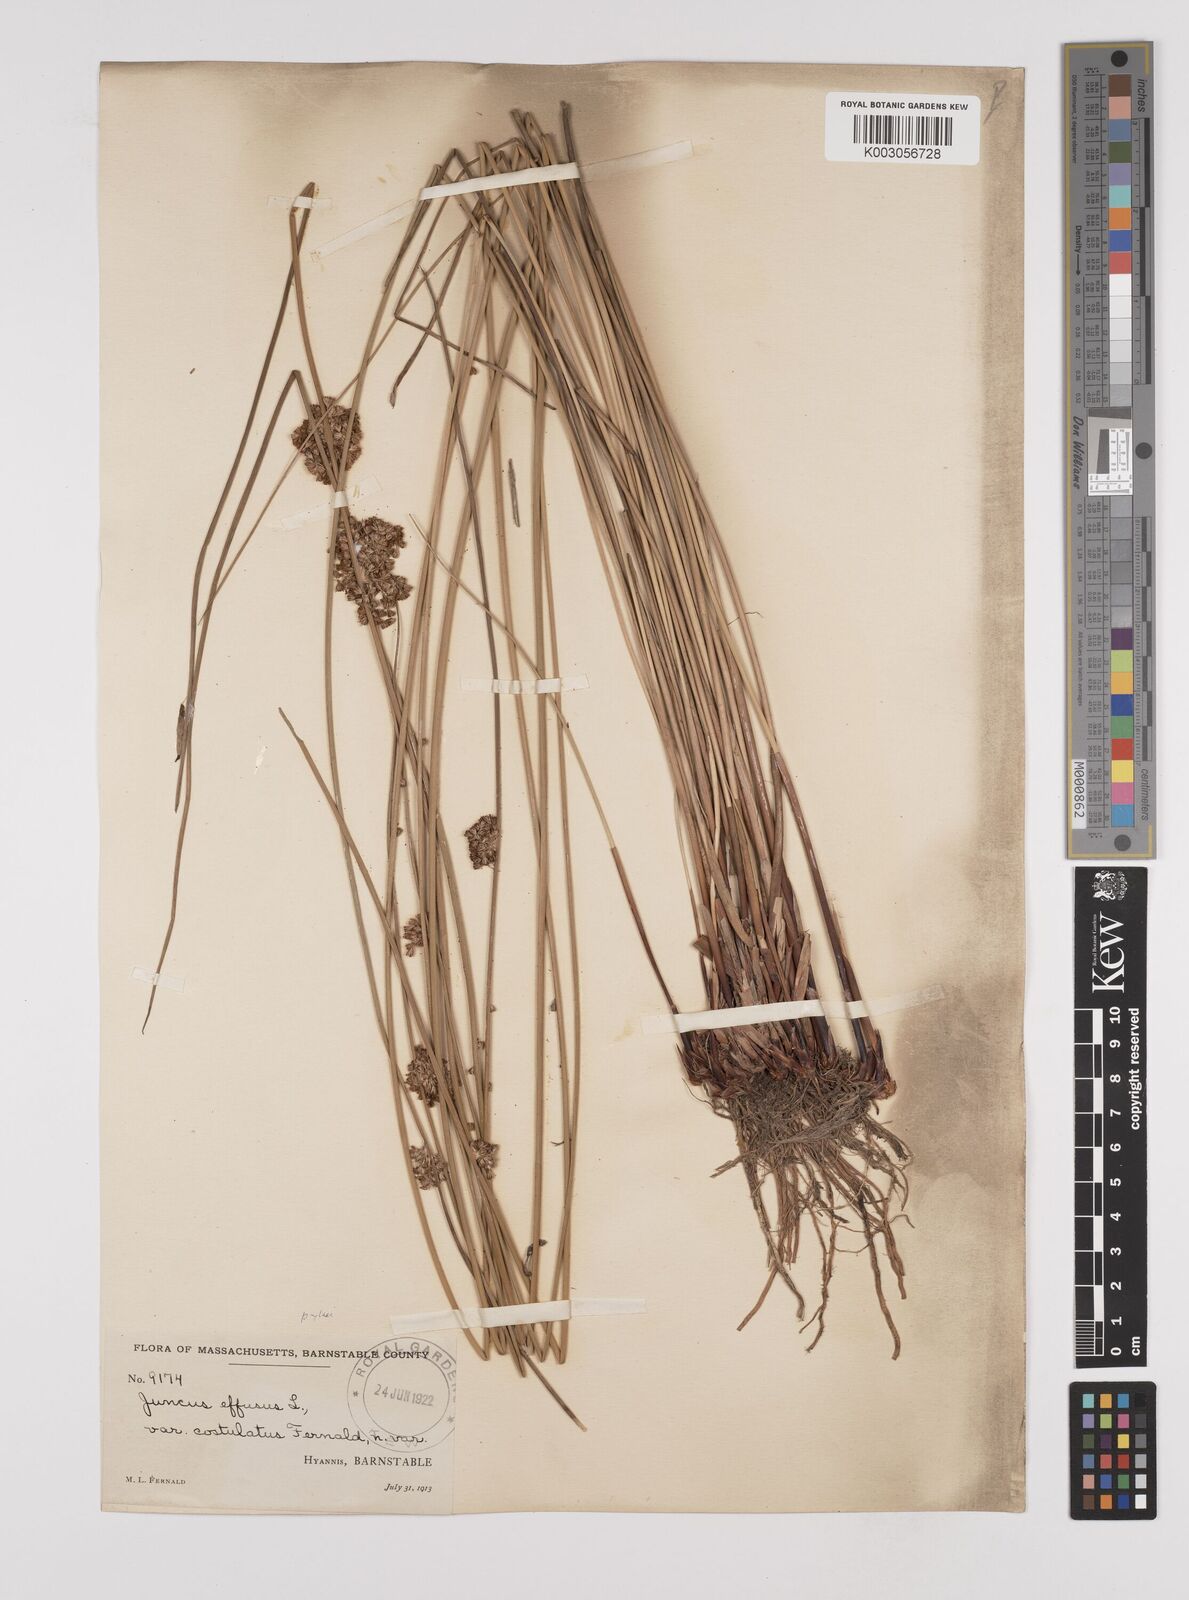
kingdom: Plantae
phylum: Tracheophyta
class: Liliopsida
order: Poales
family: Juncaceae
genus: Juncus
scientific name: Juncus effusus
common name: Soft rush
